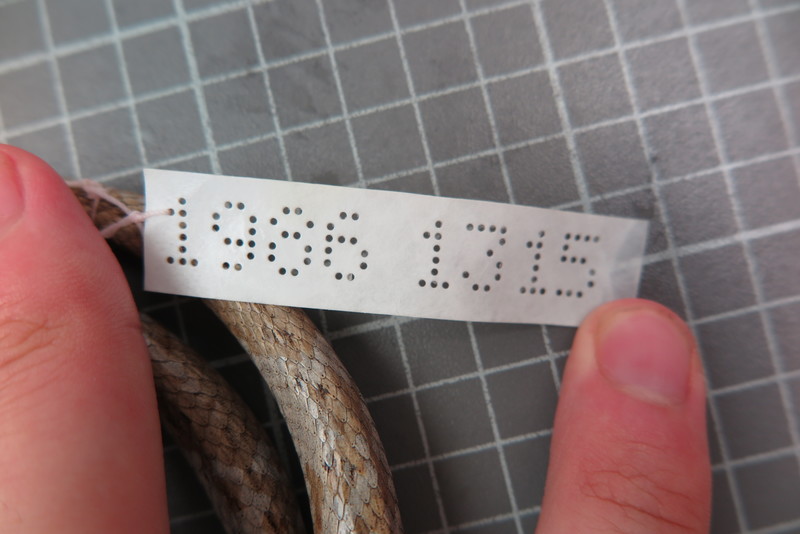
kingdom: Animalia
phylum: Chordata
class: Squamata
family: Psammophiidae
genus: Mimophis
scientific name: Mimophis
